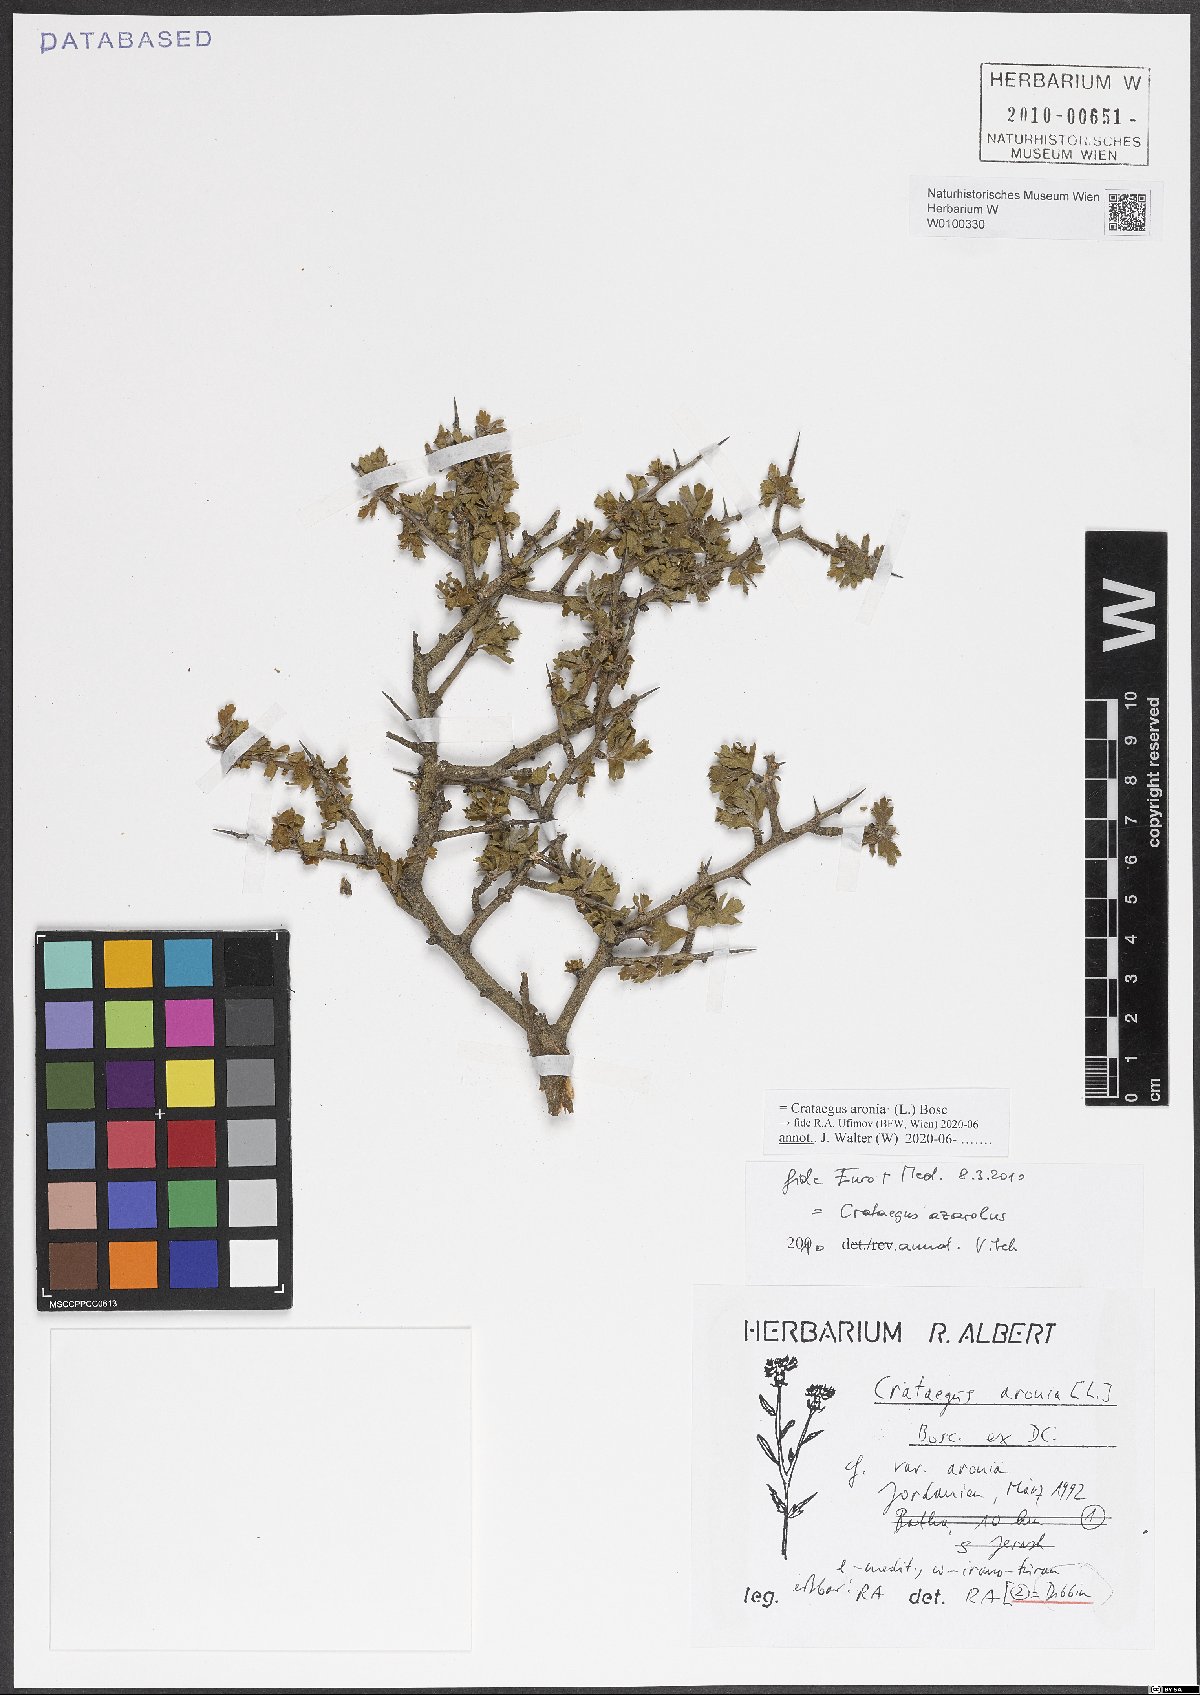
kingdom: Plantae
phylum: Tracheophyta
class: Magnoliopsida
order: Rosales
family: Rosaceae
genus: Crataegus
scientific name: Crataegus azarolus
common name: Azarole
